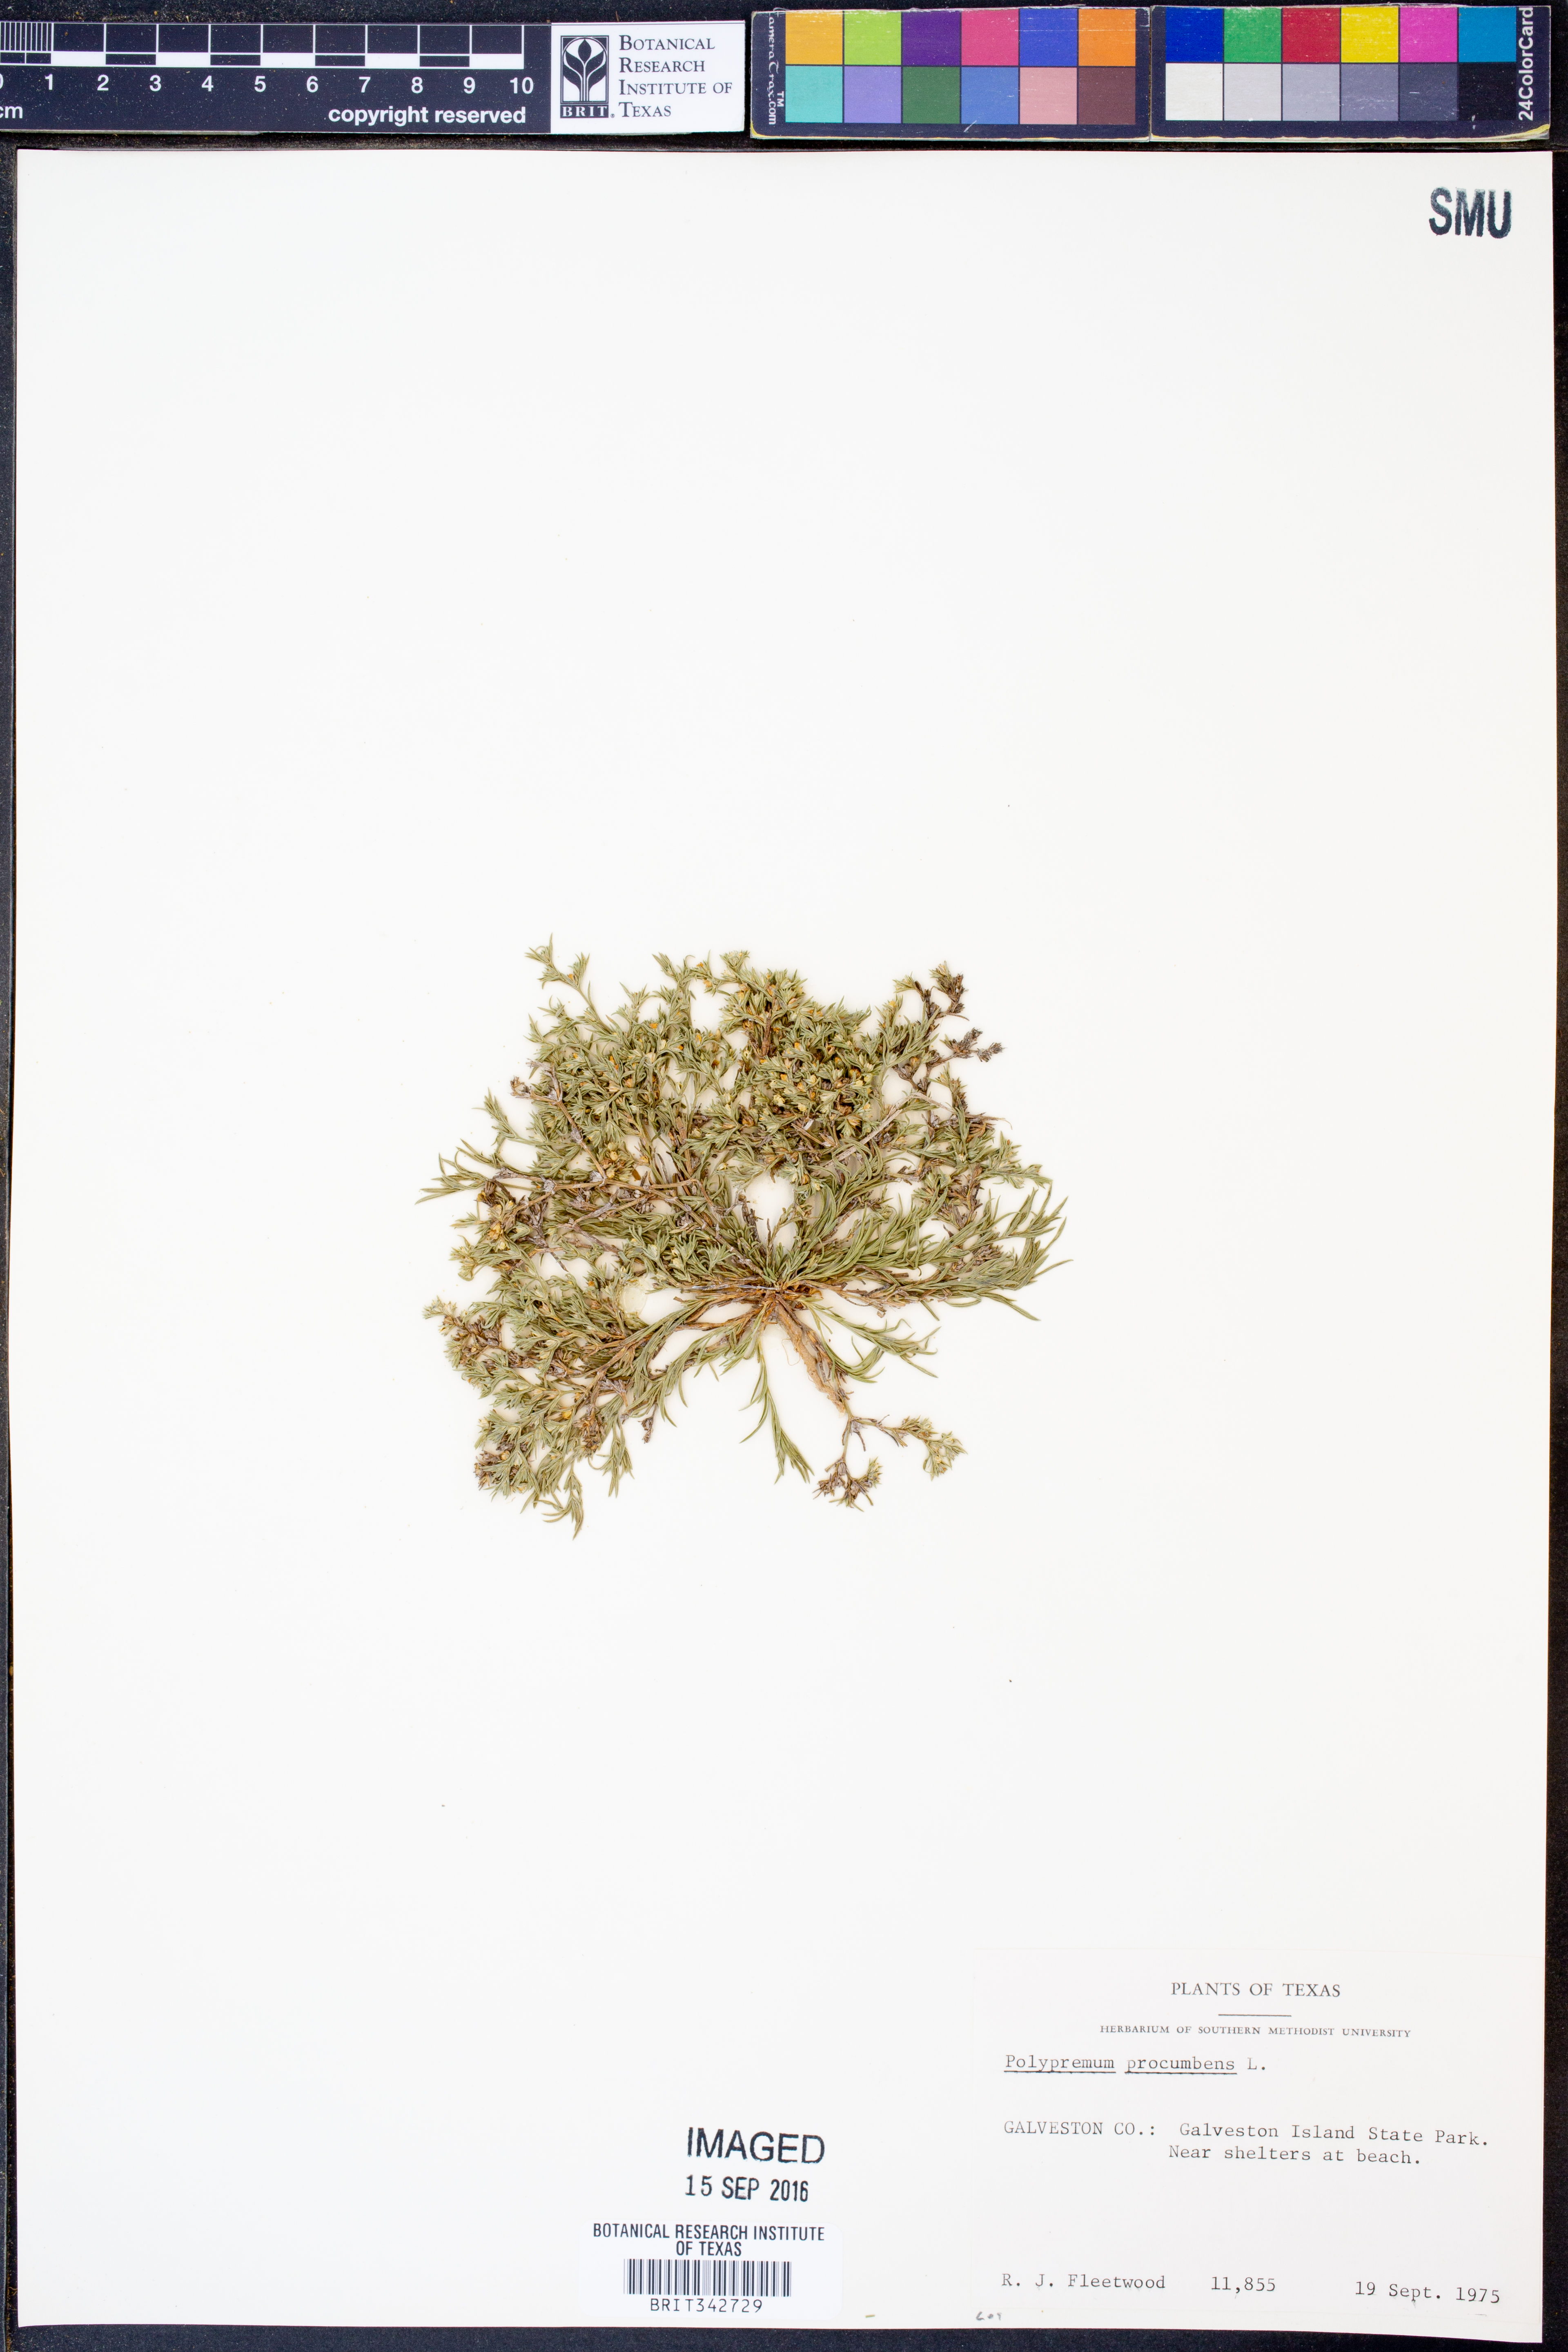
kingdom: Plantae
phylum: Tracheophyta
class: Magnoliopsida
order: Lamiales
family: Tetrachondraceae
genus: Polypremum
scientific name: Polypremum procumbens
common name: Juniper-leaf
